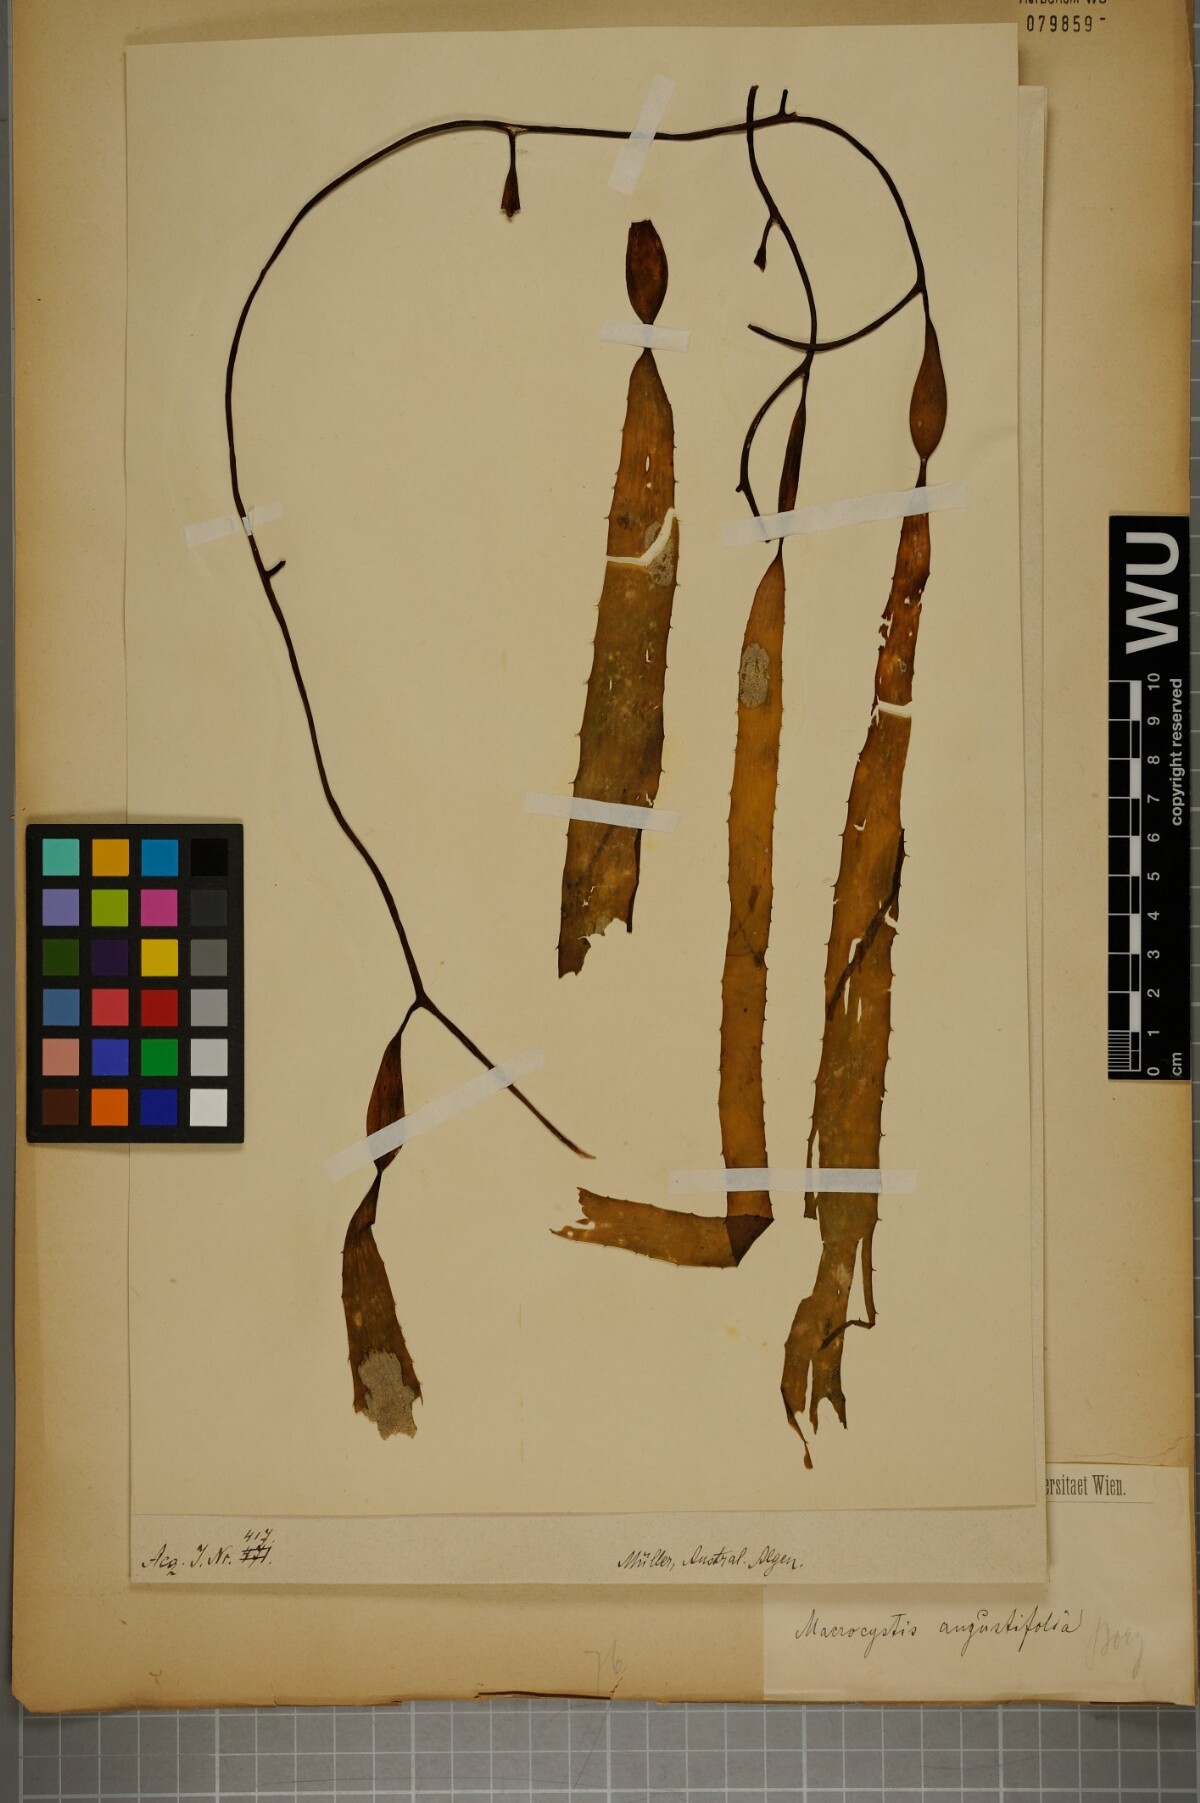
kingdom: Chromista
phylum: Ochrophyta
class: Phaeophyceae
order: Laminariales
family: Laminariaceae
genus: Macrocystis
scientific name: Macrocystis angustifolia
